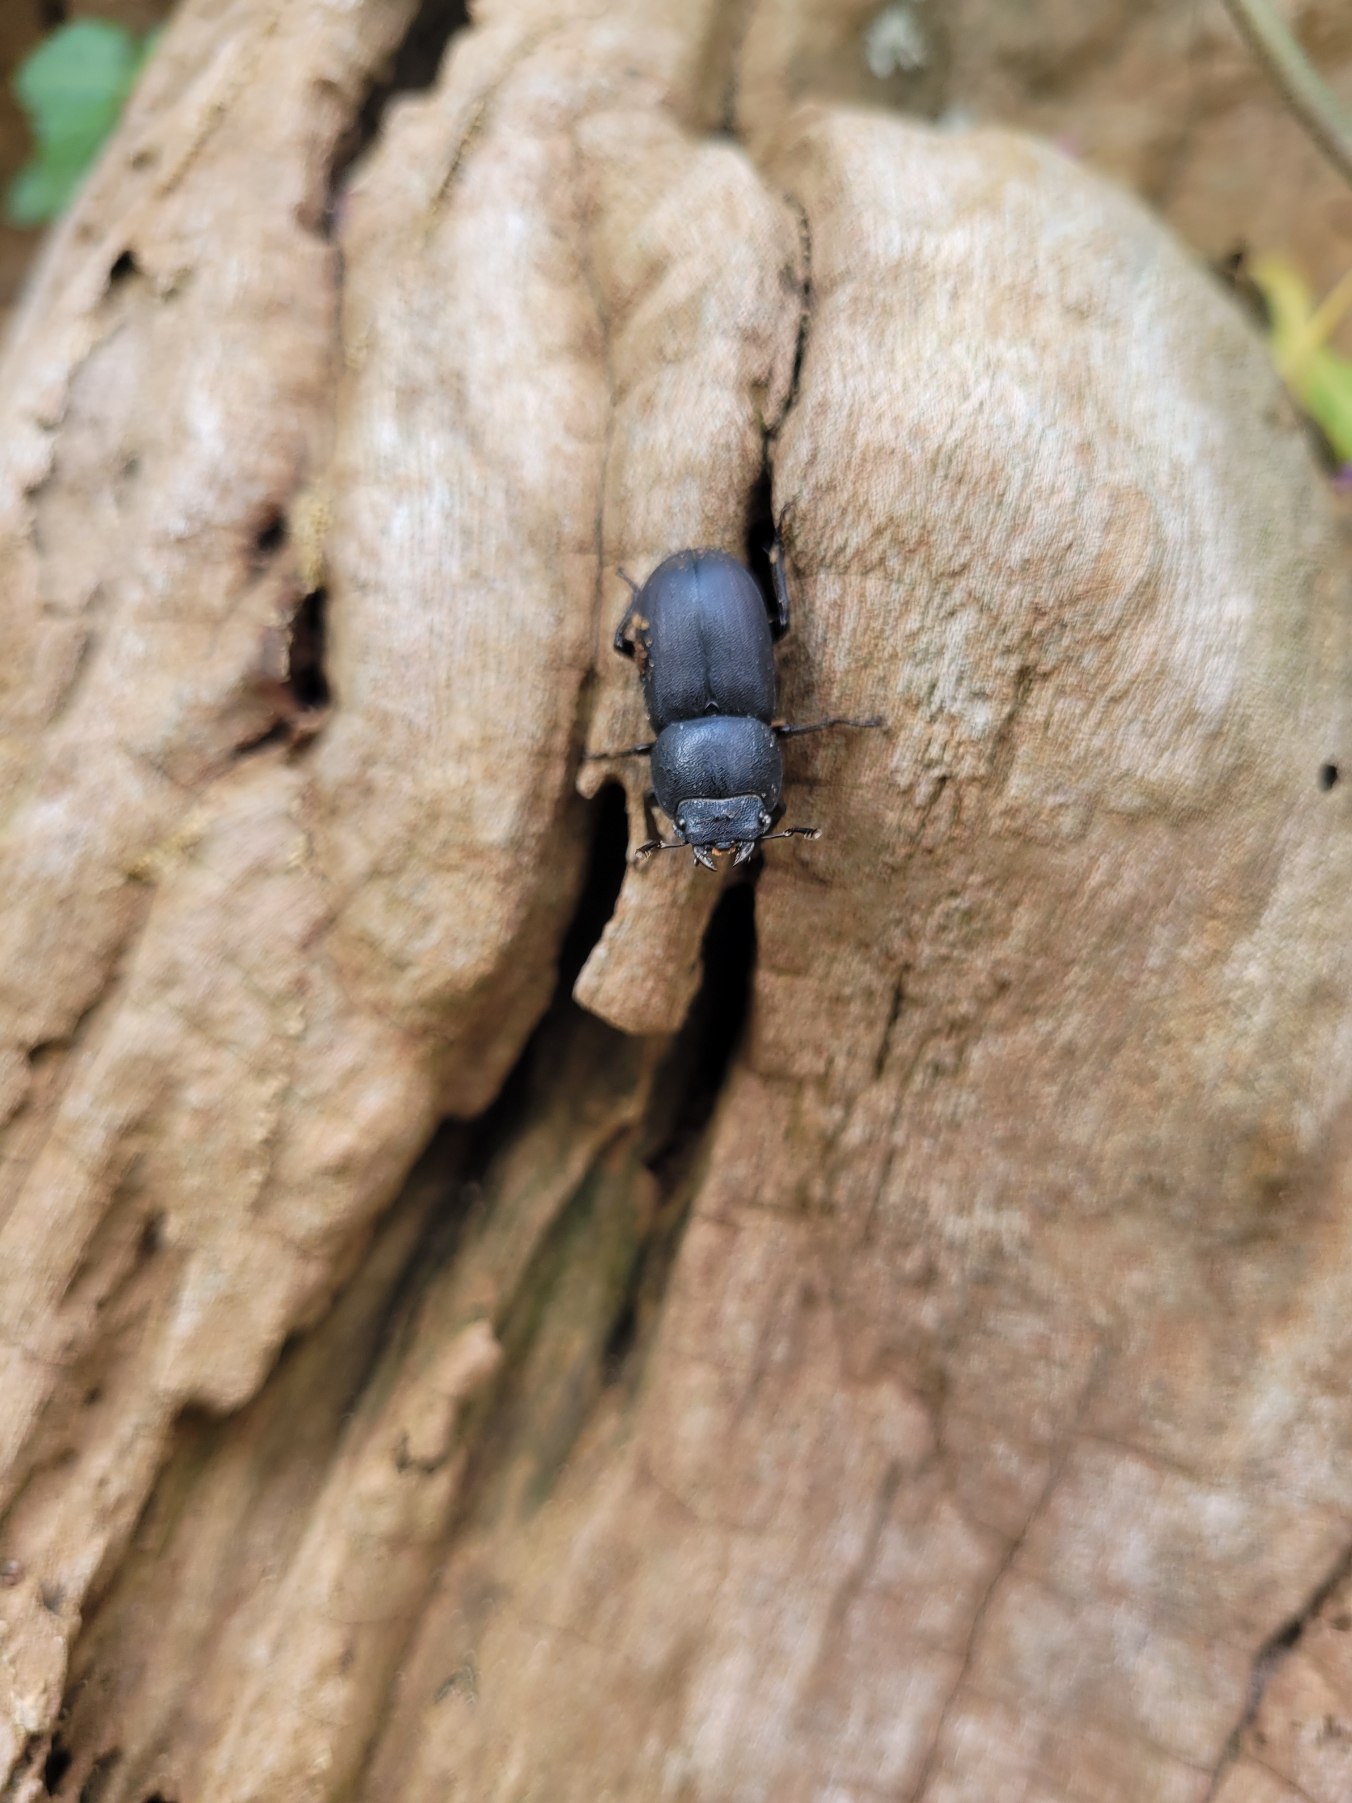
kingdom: Animalia
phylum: Arthropoda
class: Insecta
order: Coleoptera
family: Lucanidae
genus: Dorcus
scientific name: Dorcus parallelipipedus
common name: Bøghjort
